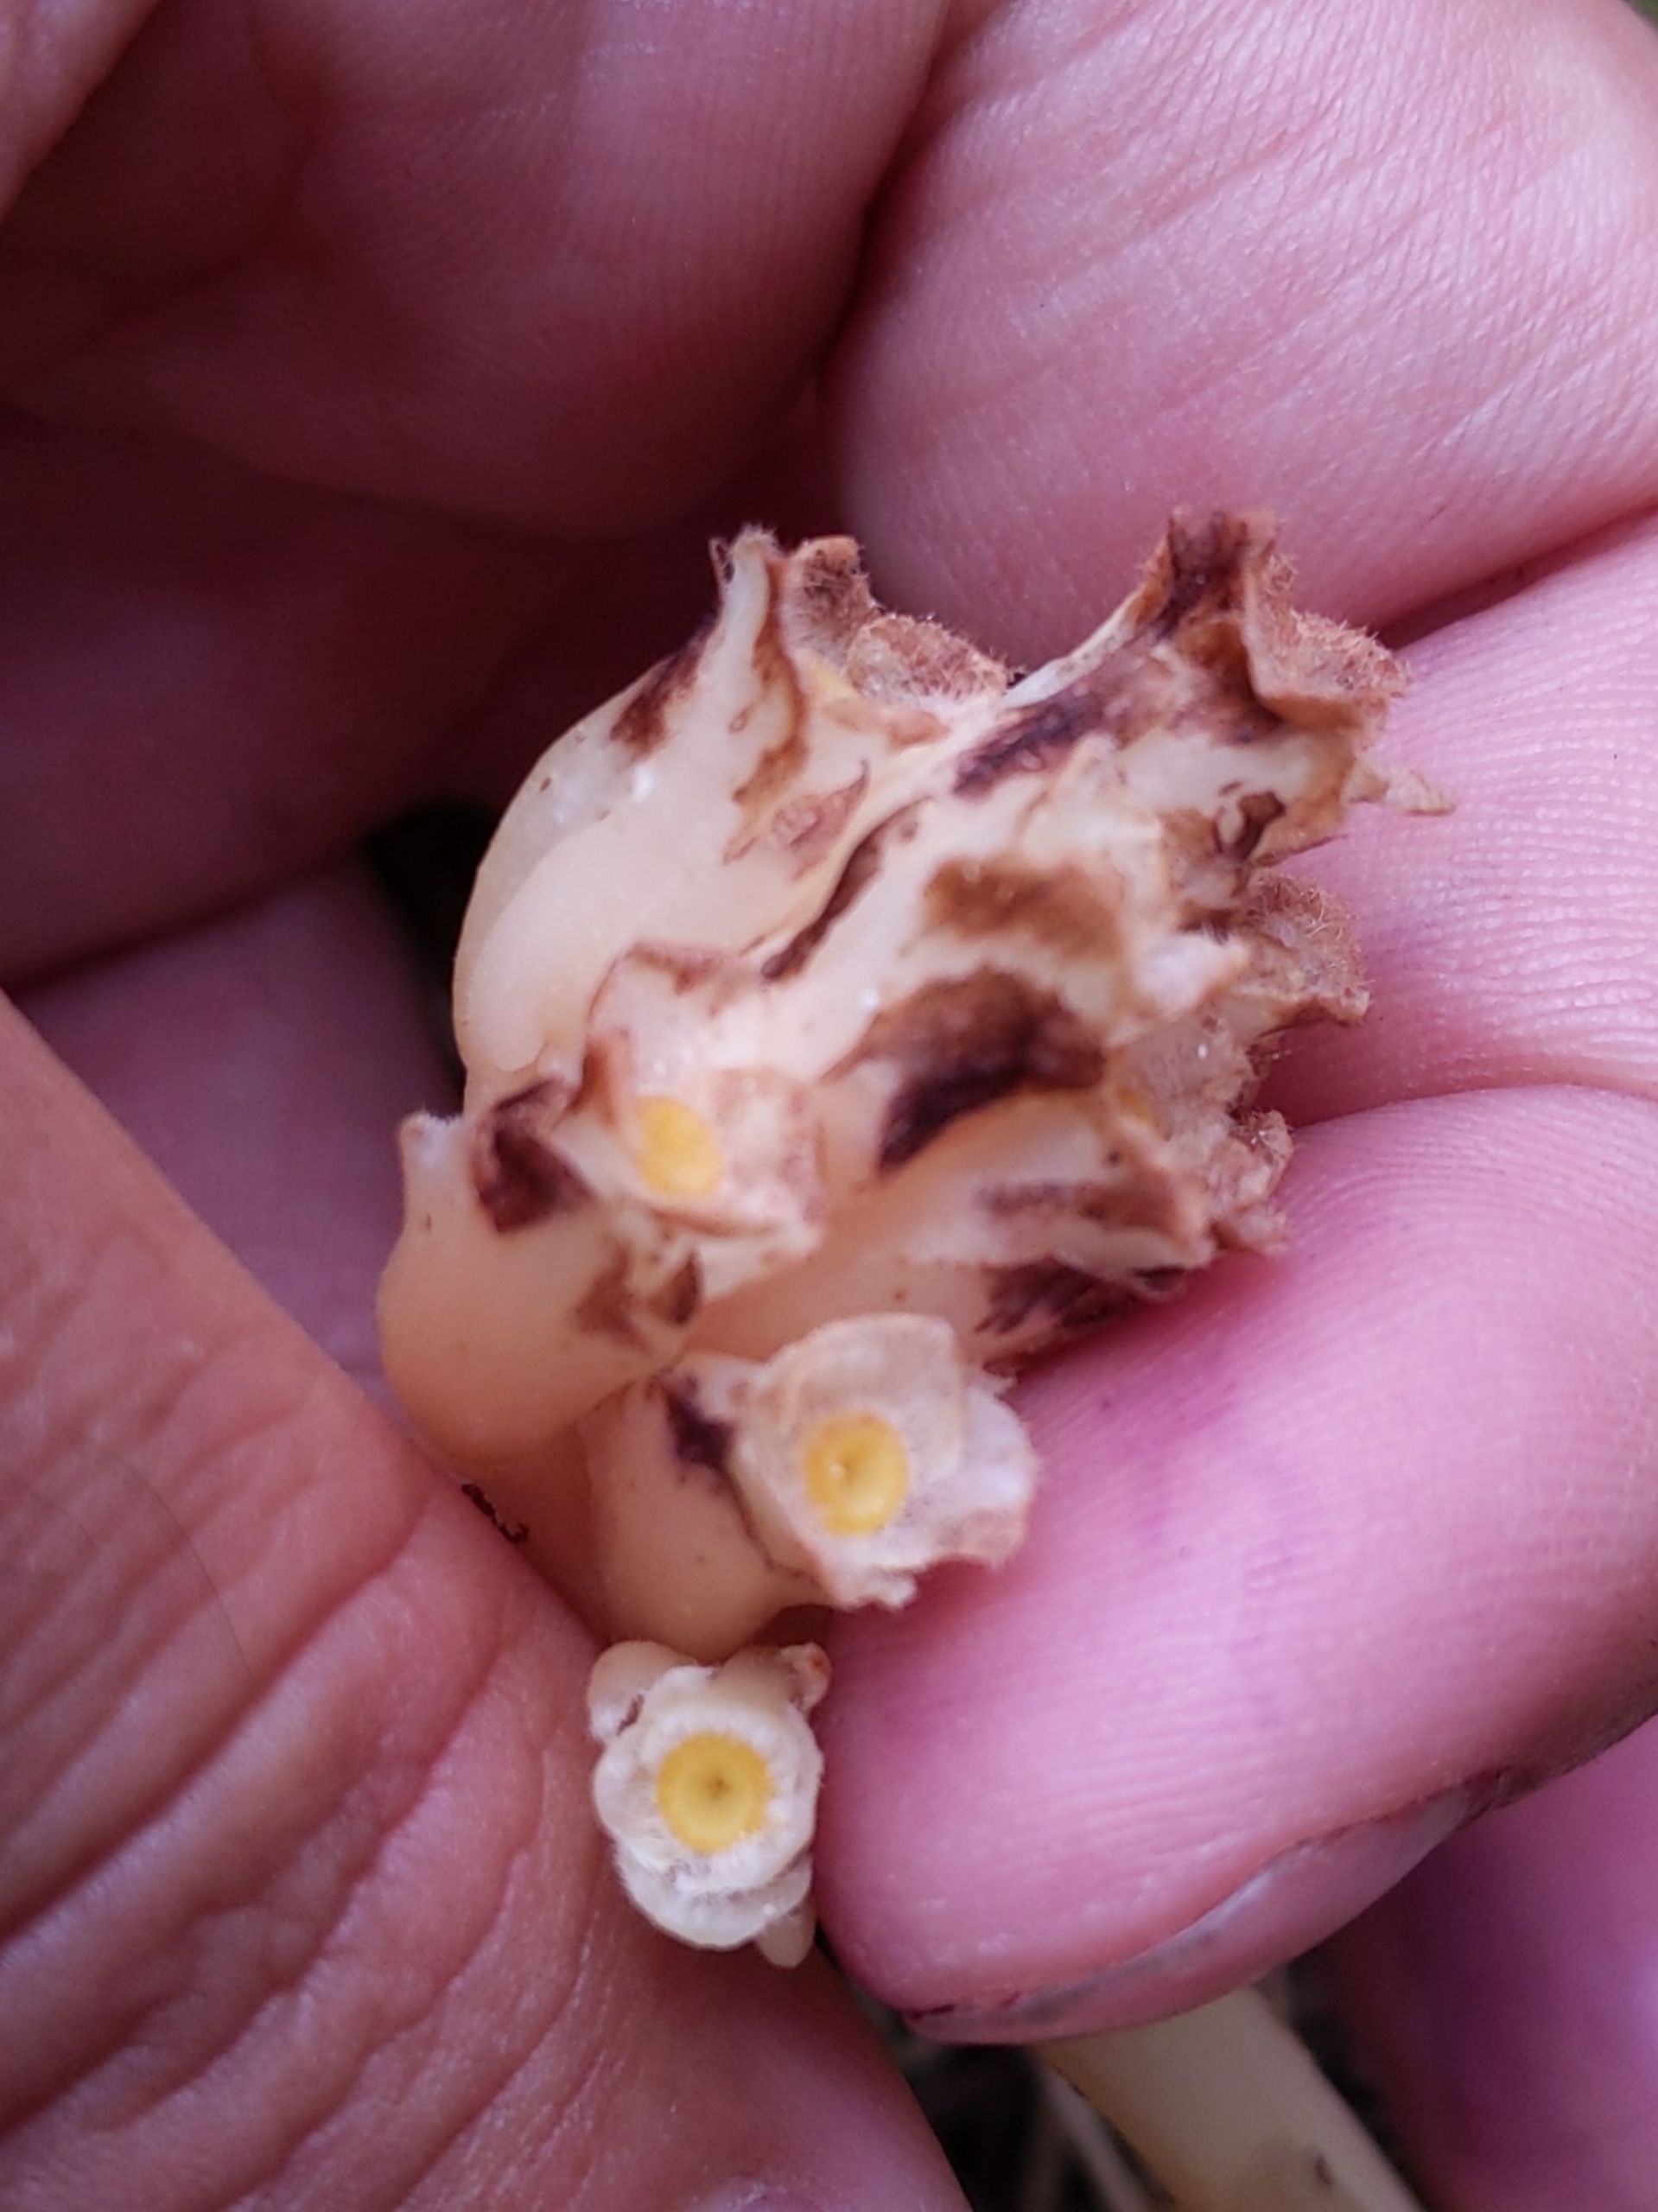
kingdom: Plantae
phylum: Tracheophyta
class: Magnoliopsida
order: Ericales
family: Ericaceae
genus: Hypopitys
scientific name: Hypopitys monotropa
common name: Snylterod
